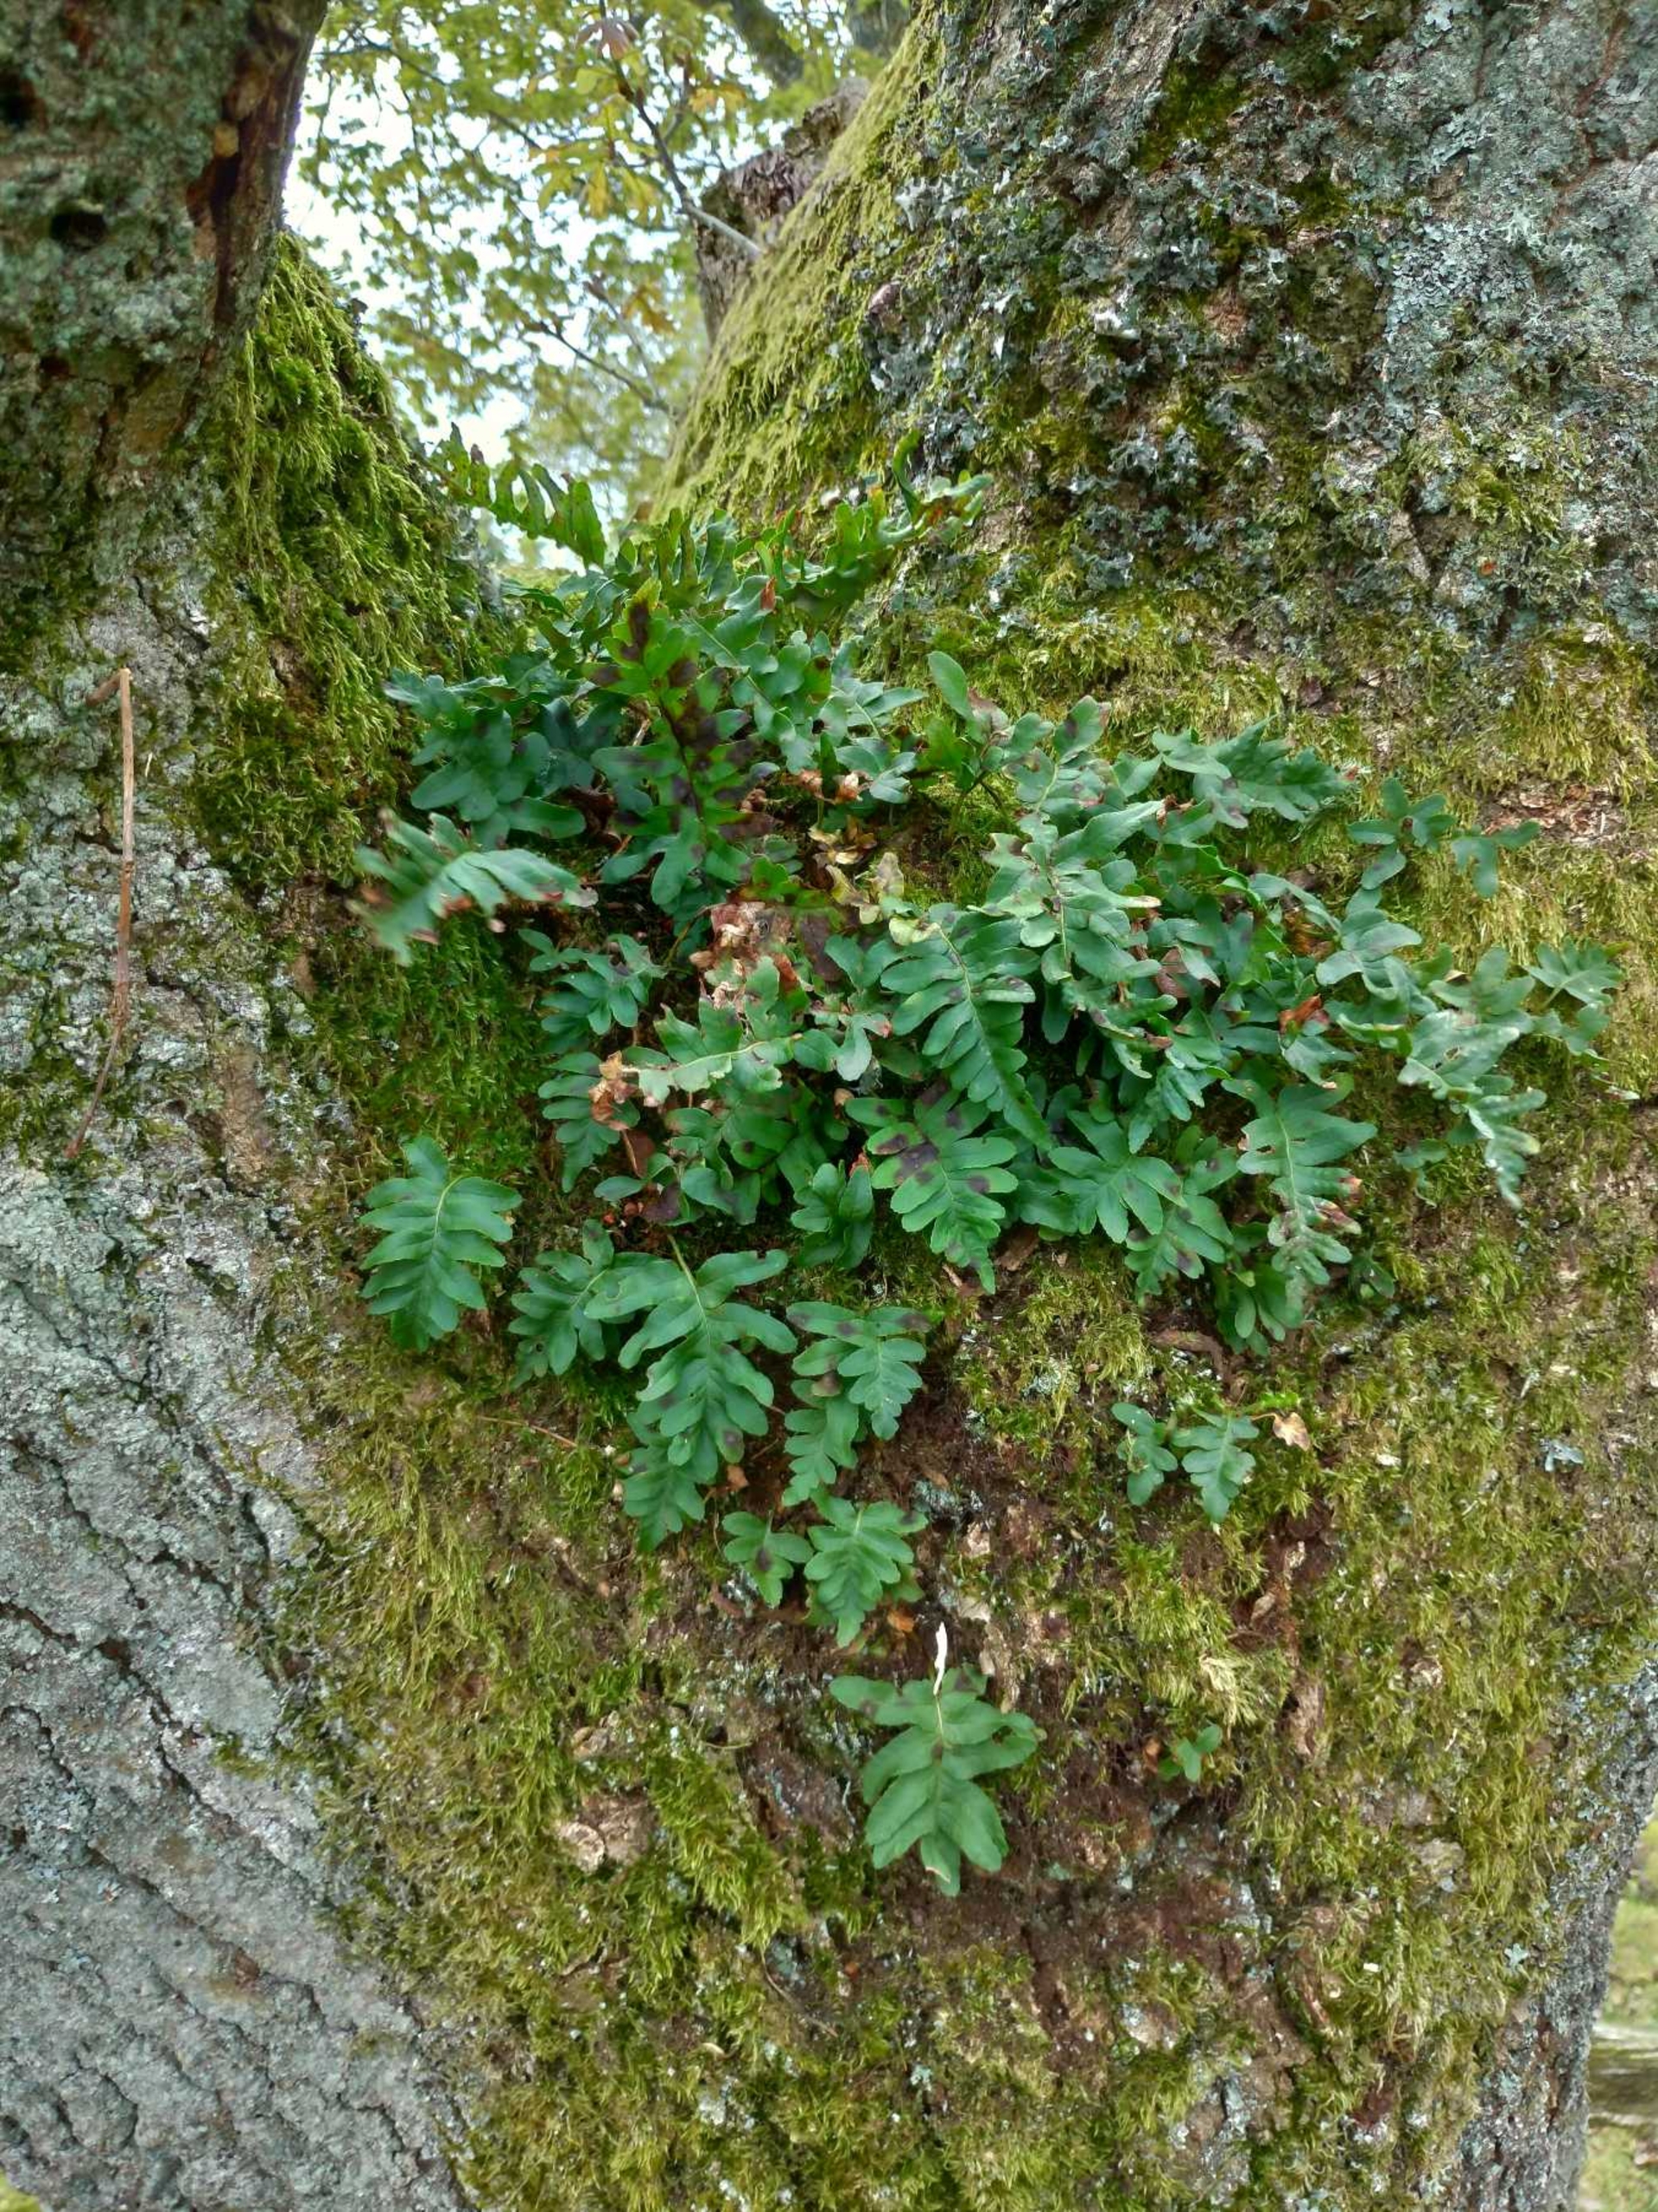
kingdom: Plantae
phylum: Tracheophyta
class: Polypodiopsida
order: Polypodiales
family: Polypodiaceae
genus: Polypodium
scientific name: Polypodium vulgare
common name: Almindelig engelsød
